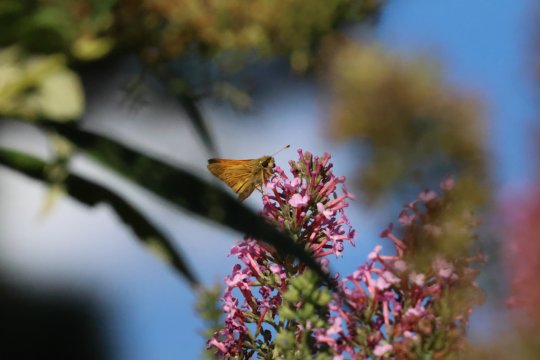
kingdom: Animalia
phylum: Arthropoda
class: Insecta
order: Lepidoptera
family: Hesperiidae
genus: Hylephila
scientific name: Hylephila phyleus
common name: Fiery Skipper
